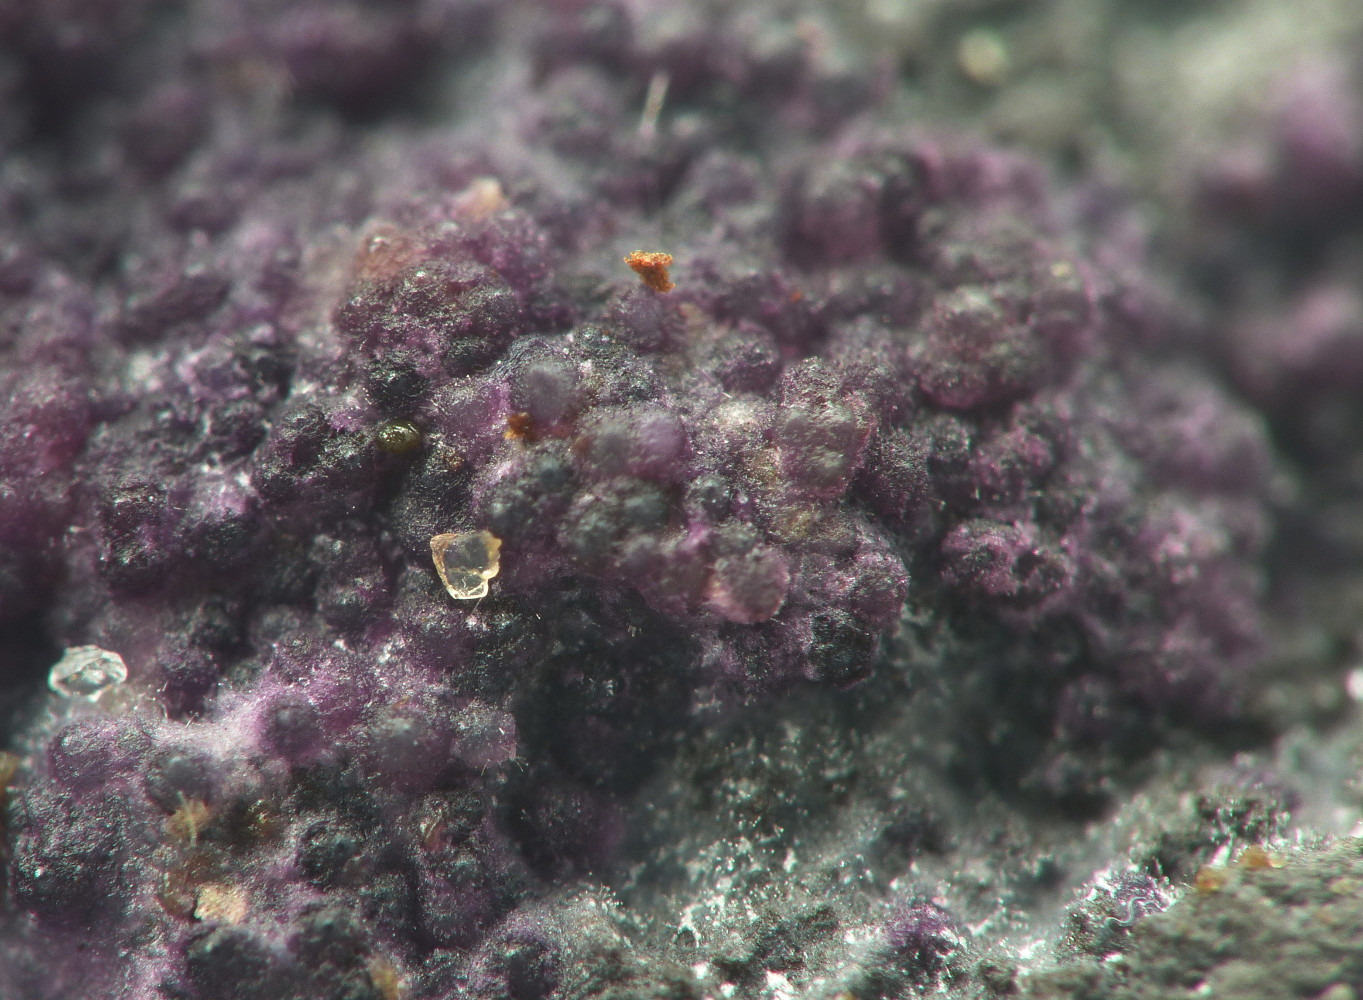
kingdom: Fungi
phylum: Ascomycota
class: Sordariomycetes
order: Hypocreales
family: Bionectriaceae
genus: Nectriopsis
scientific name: Nectriopsis violacea
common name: violet snyltespind
